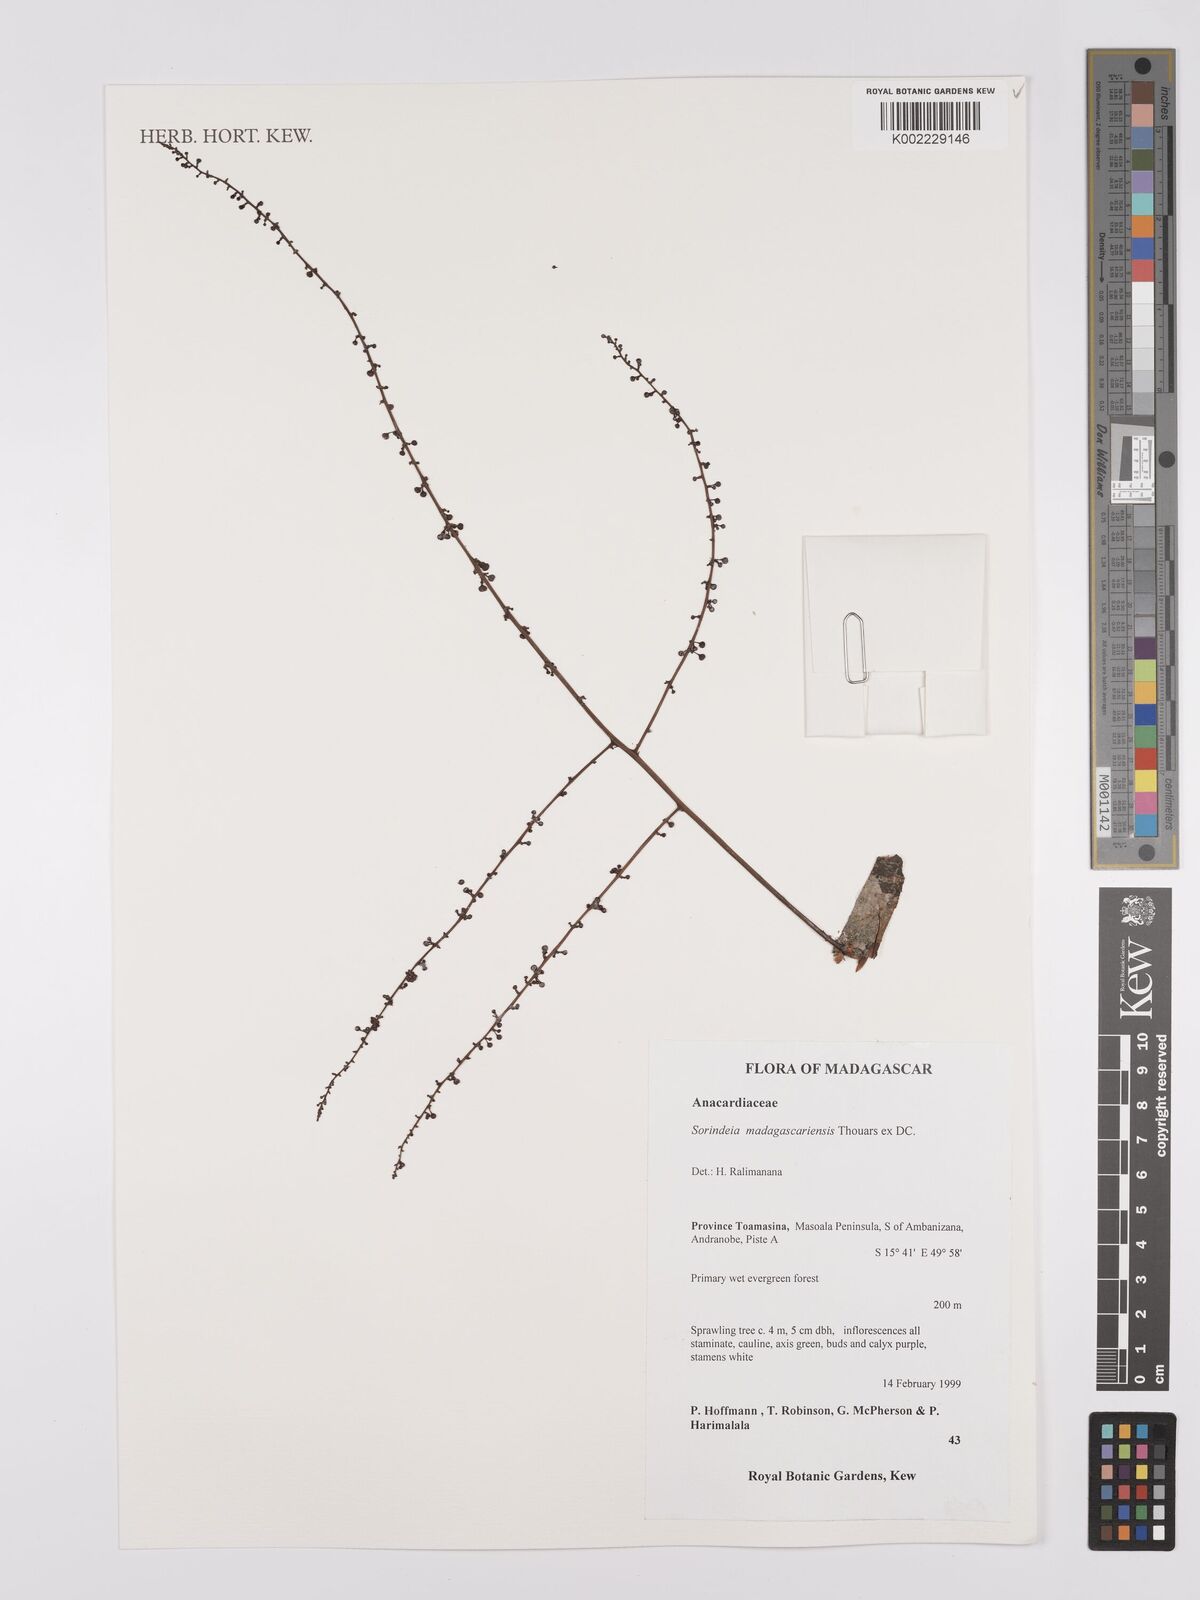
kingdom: Plantae
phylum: Tracheophyta
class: Magnoliopsida
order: Sapindales
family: Anacardiaceae
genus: Sorindeia
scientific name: Sorindeia madagascariensis
